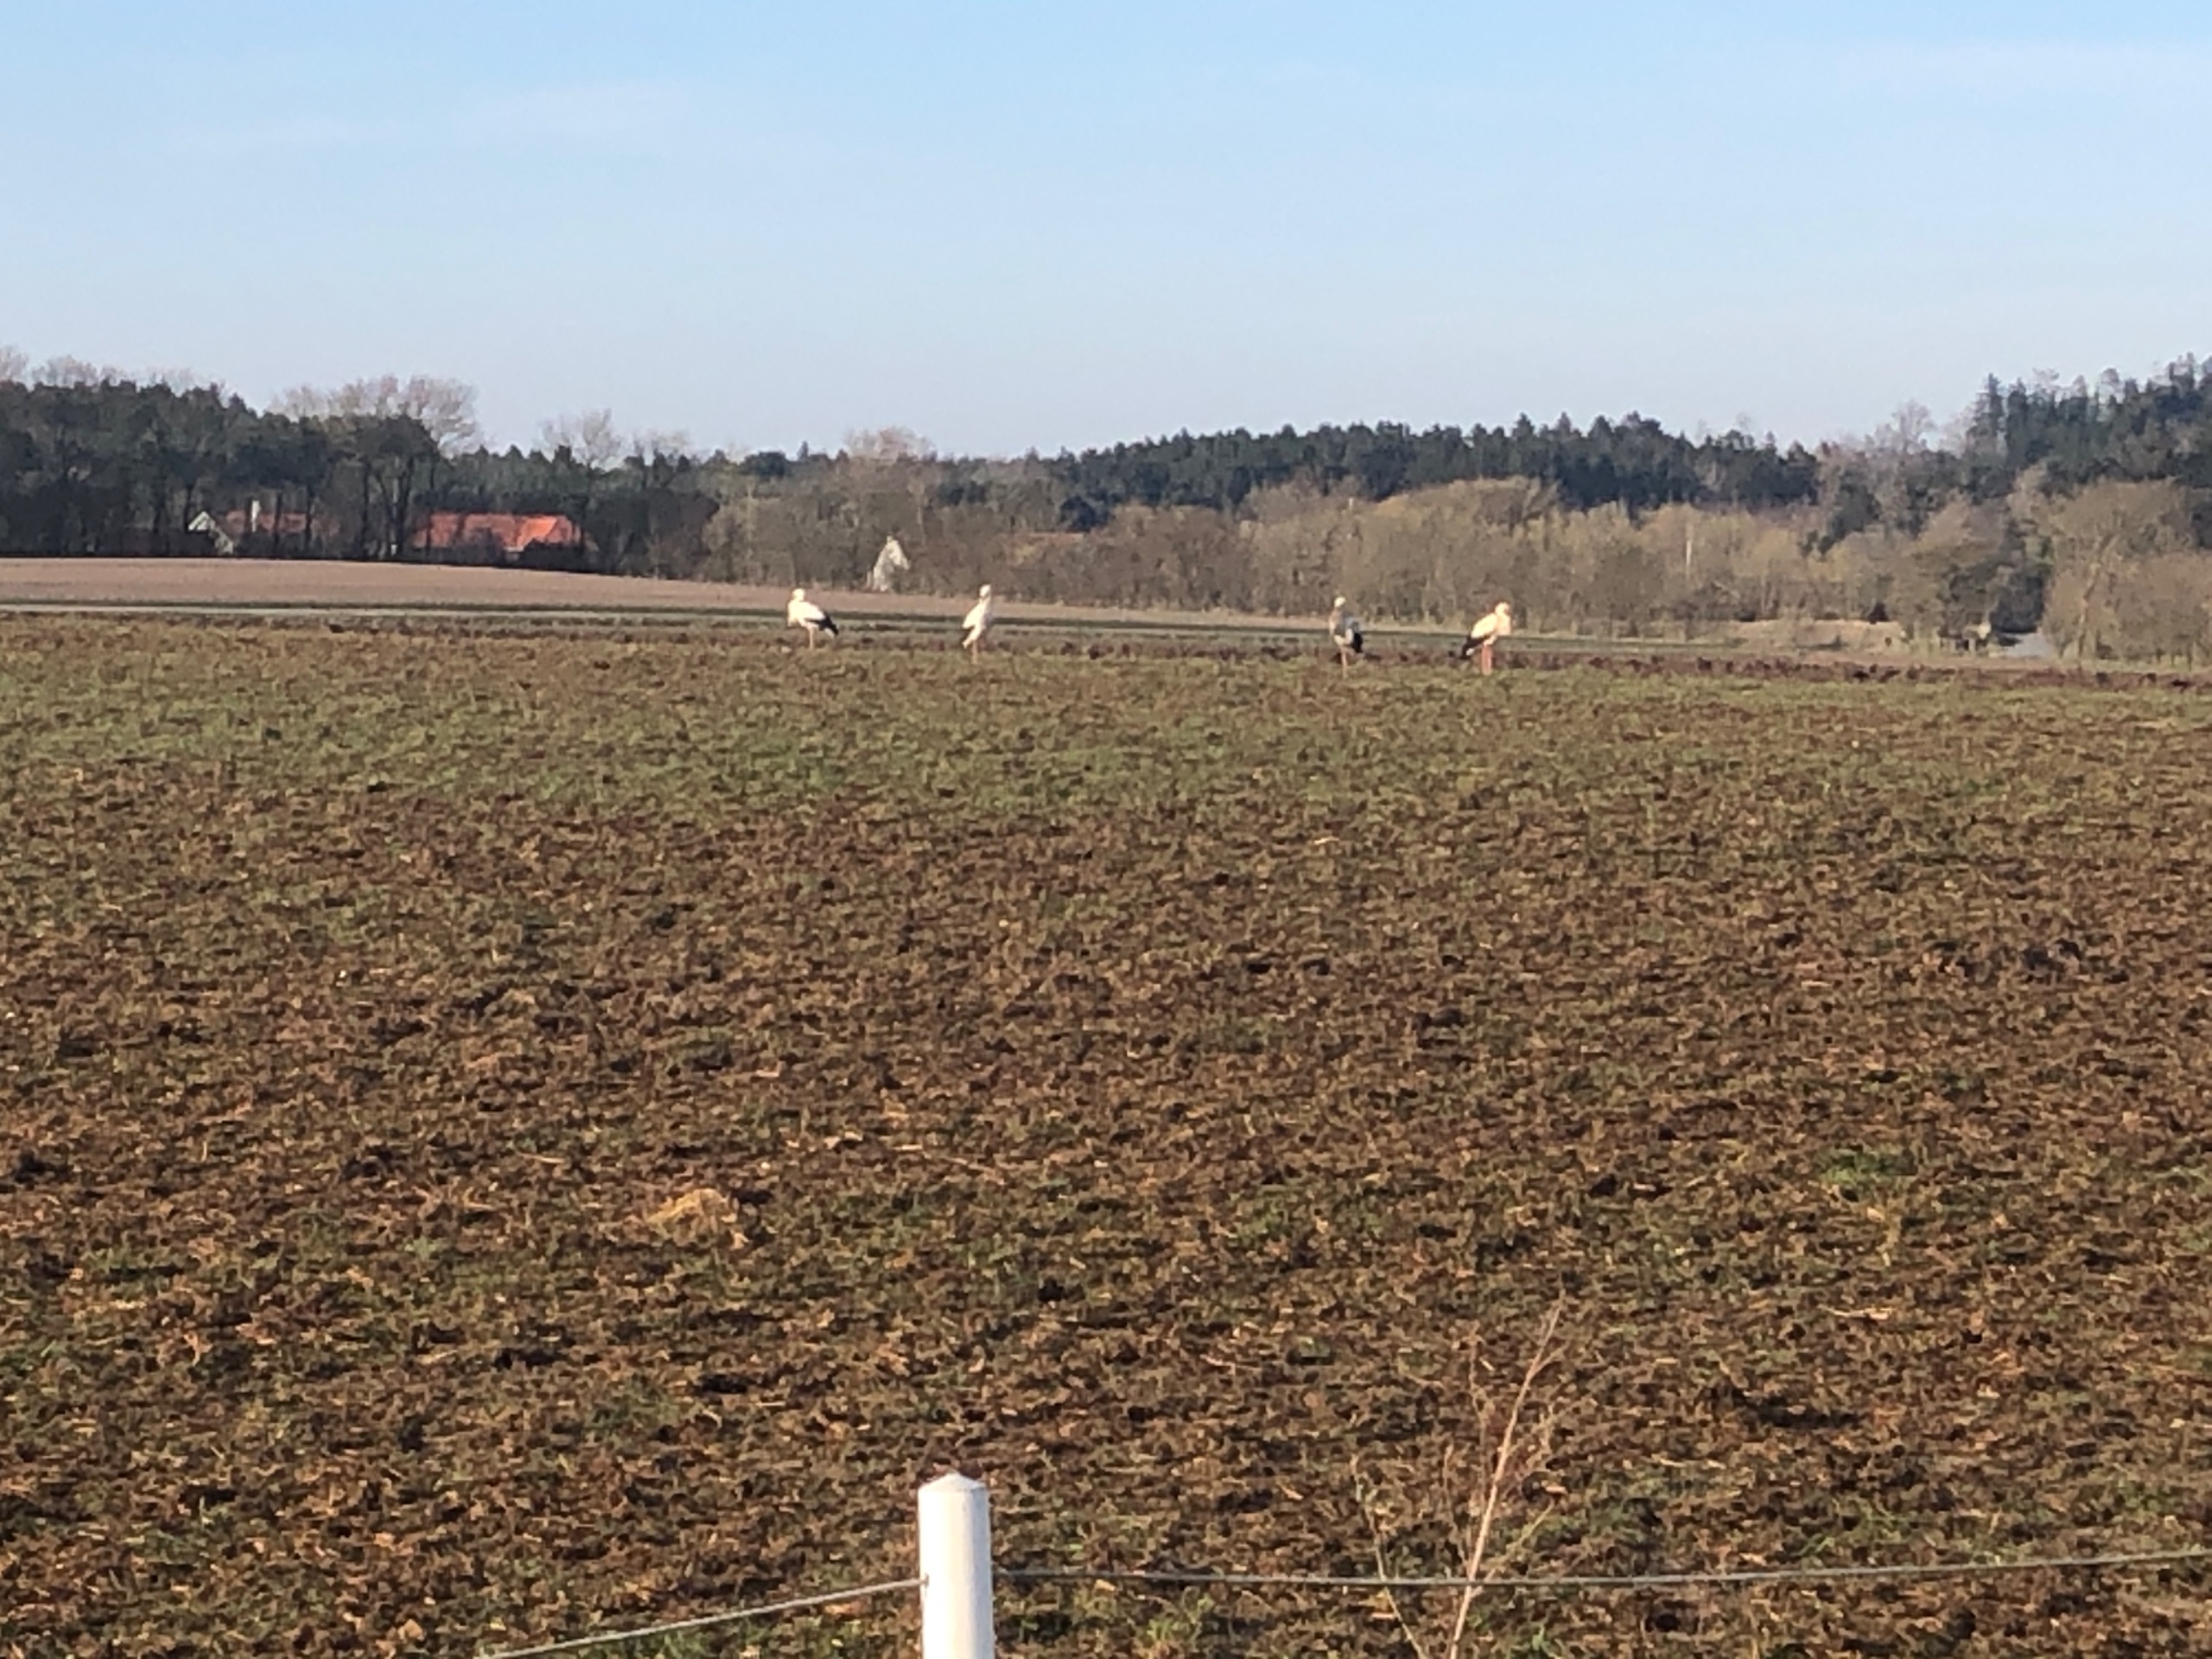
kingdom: Animalia
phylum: Chordata
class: Aves
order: Ciconiiformes
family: Ciconiidae
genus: Ciconia
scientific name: Ciconia ciconia
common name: Hvid stork
